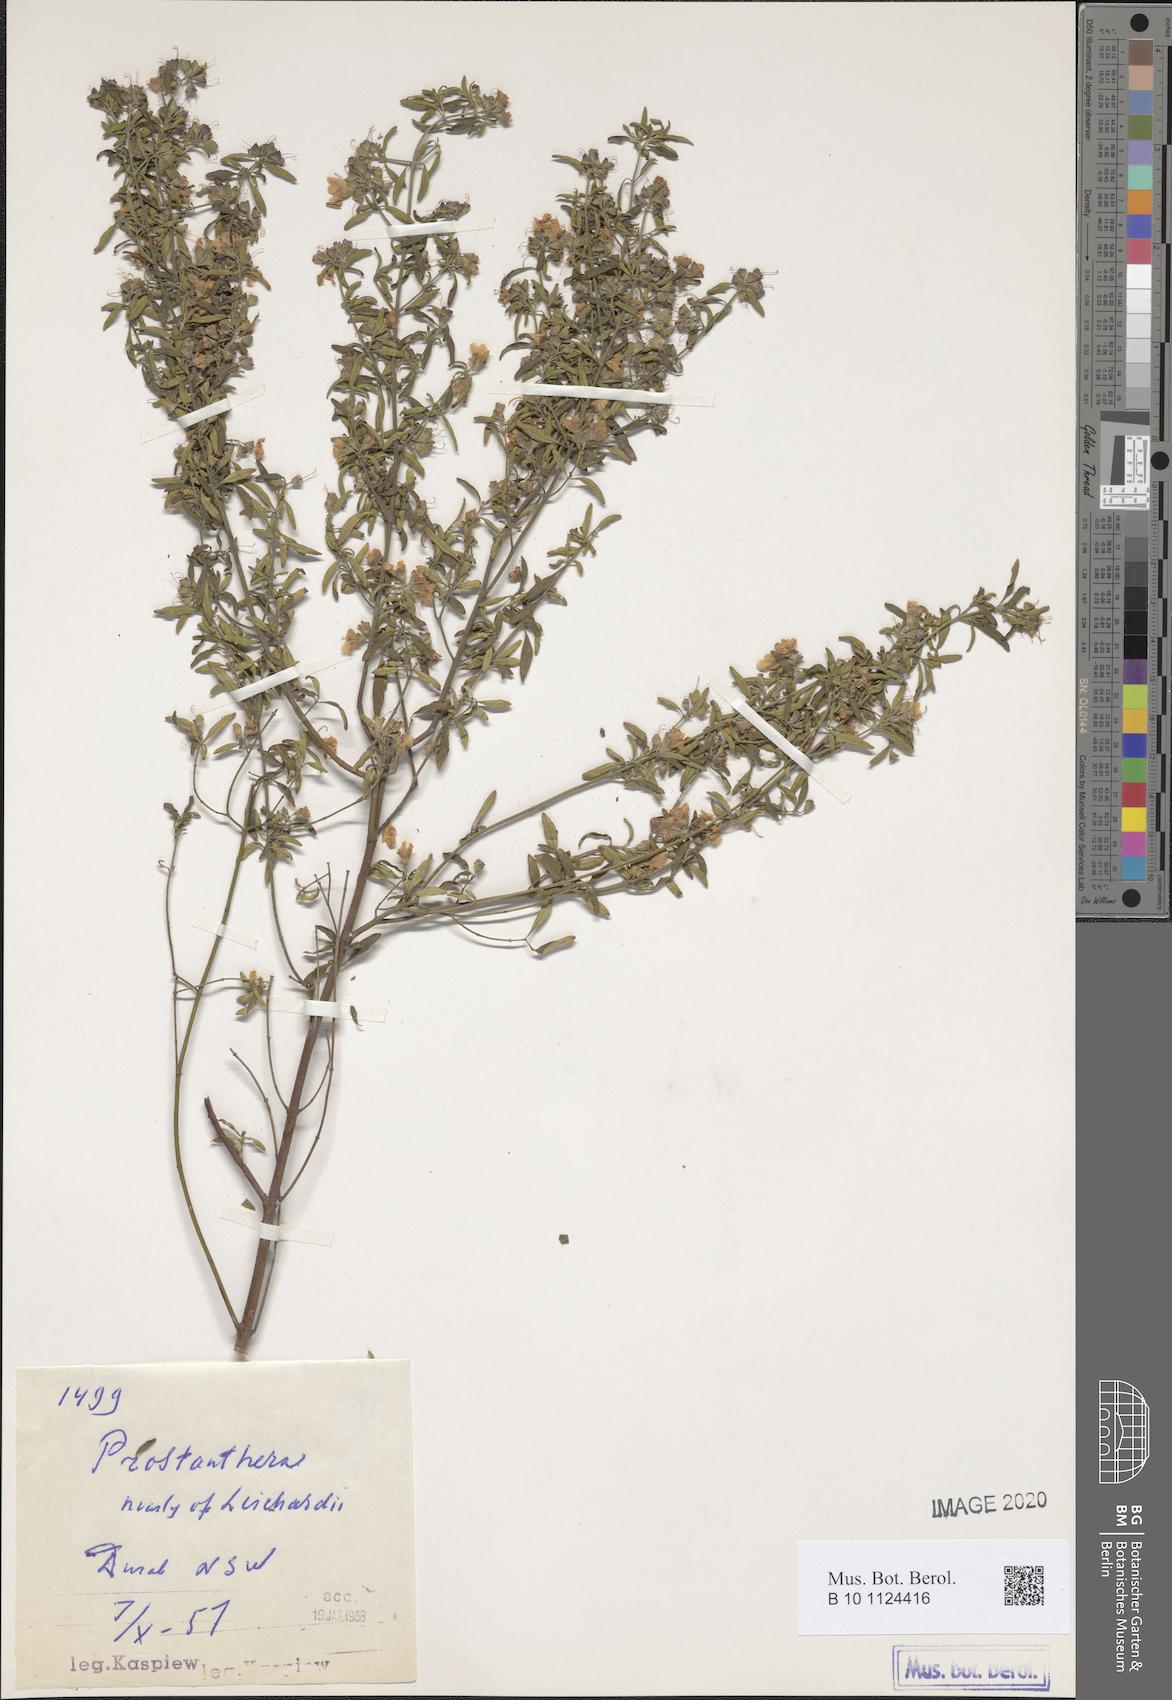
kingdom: Plantae
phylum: Tracheophyta
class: Magnoliopsida
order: Lamiales
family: Lamiaceae
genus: Prostanthera
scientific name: Prostanthera cineolifera
